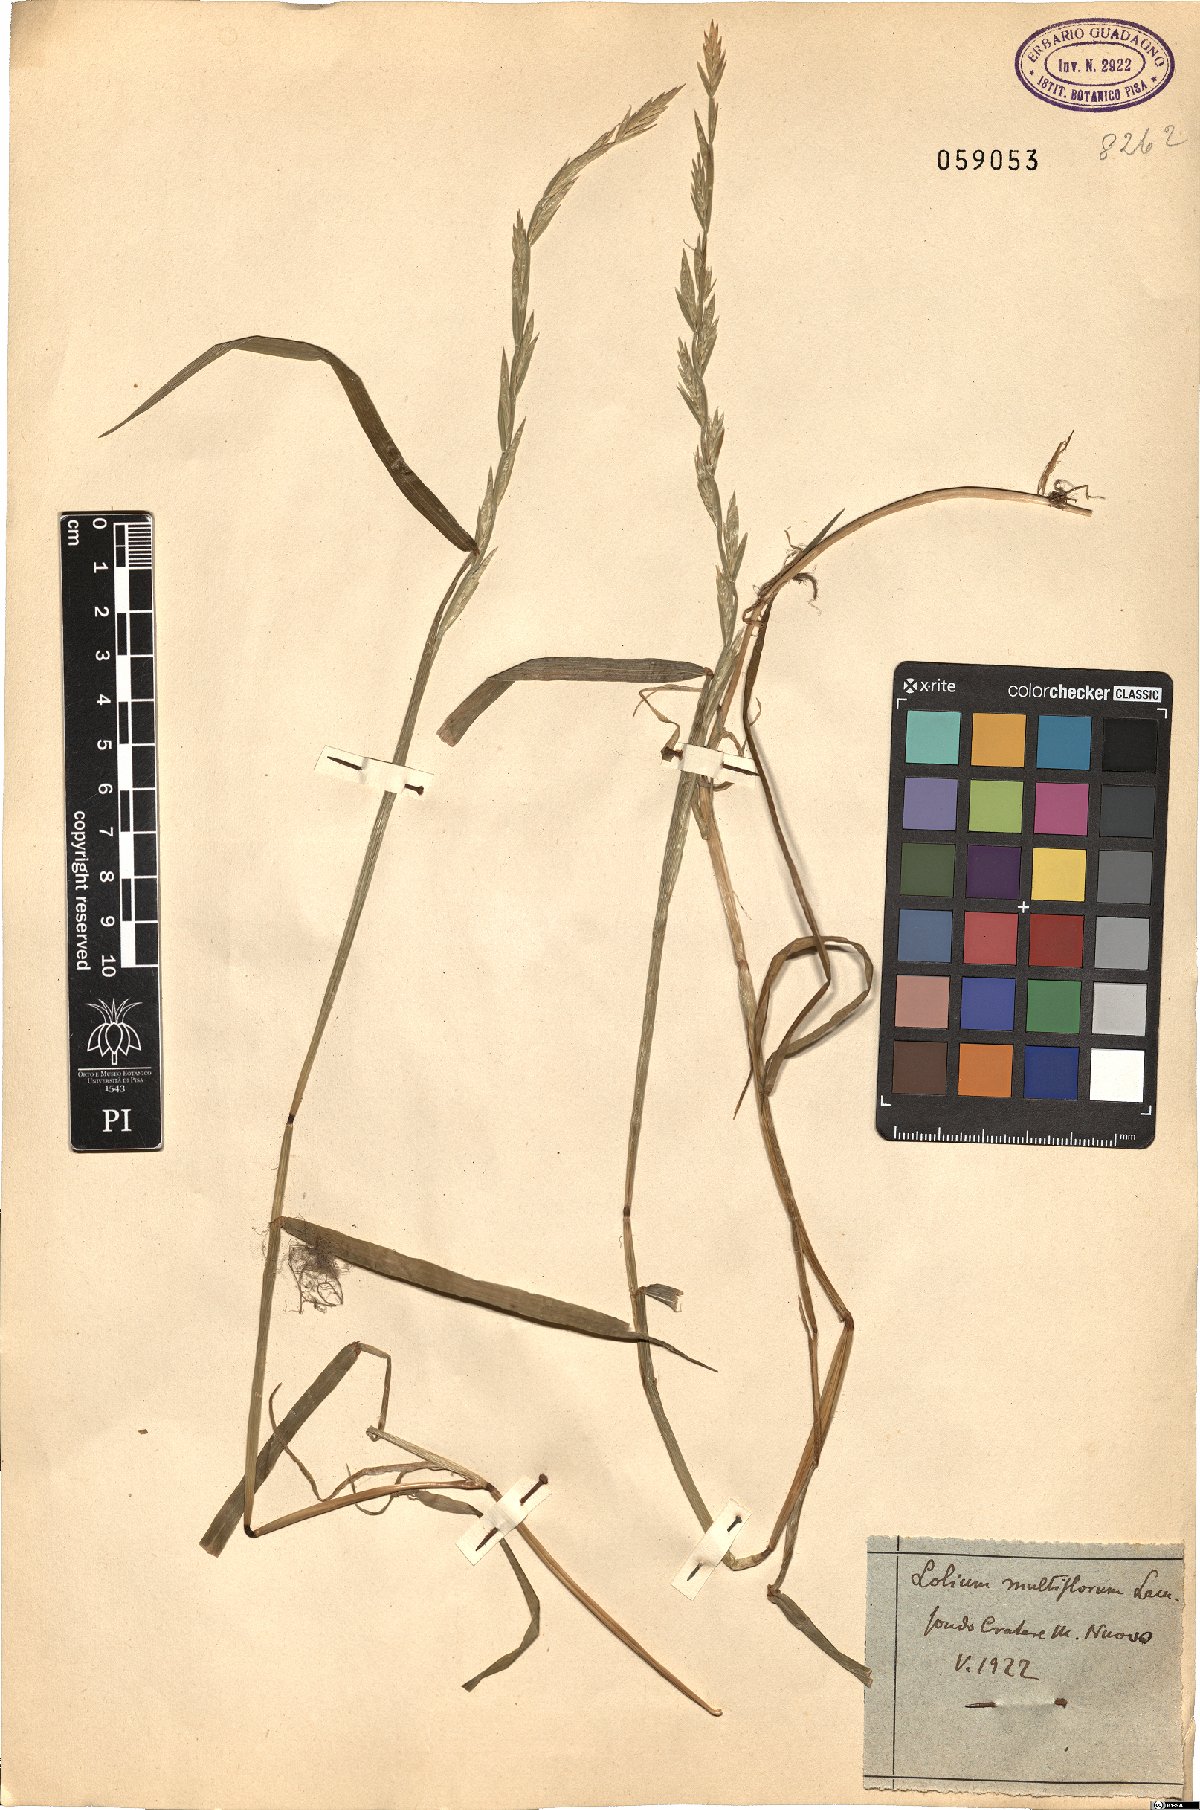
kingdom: Plantae
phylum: Tracheophyta
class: Liliopsida
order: Poales
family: Poaceae
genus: Lolium
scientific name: Lolium multiflorum
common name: Annual ryegrass
